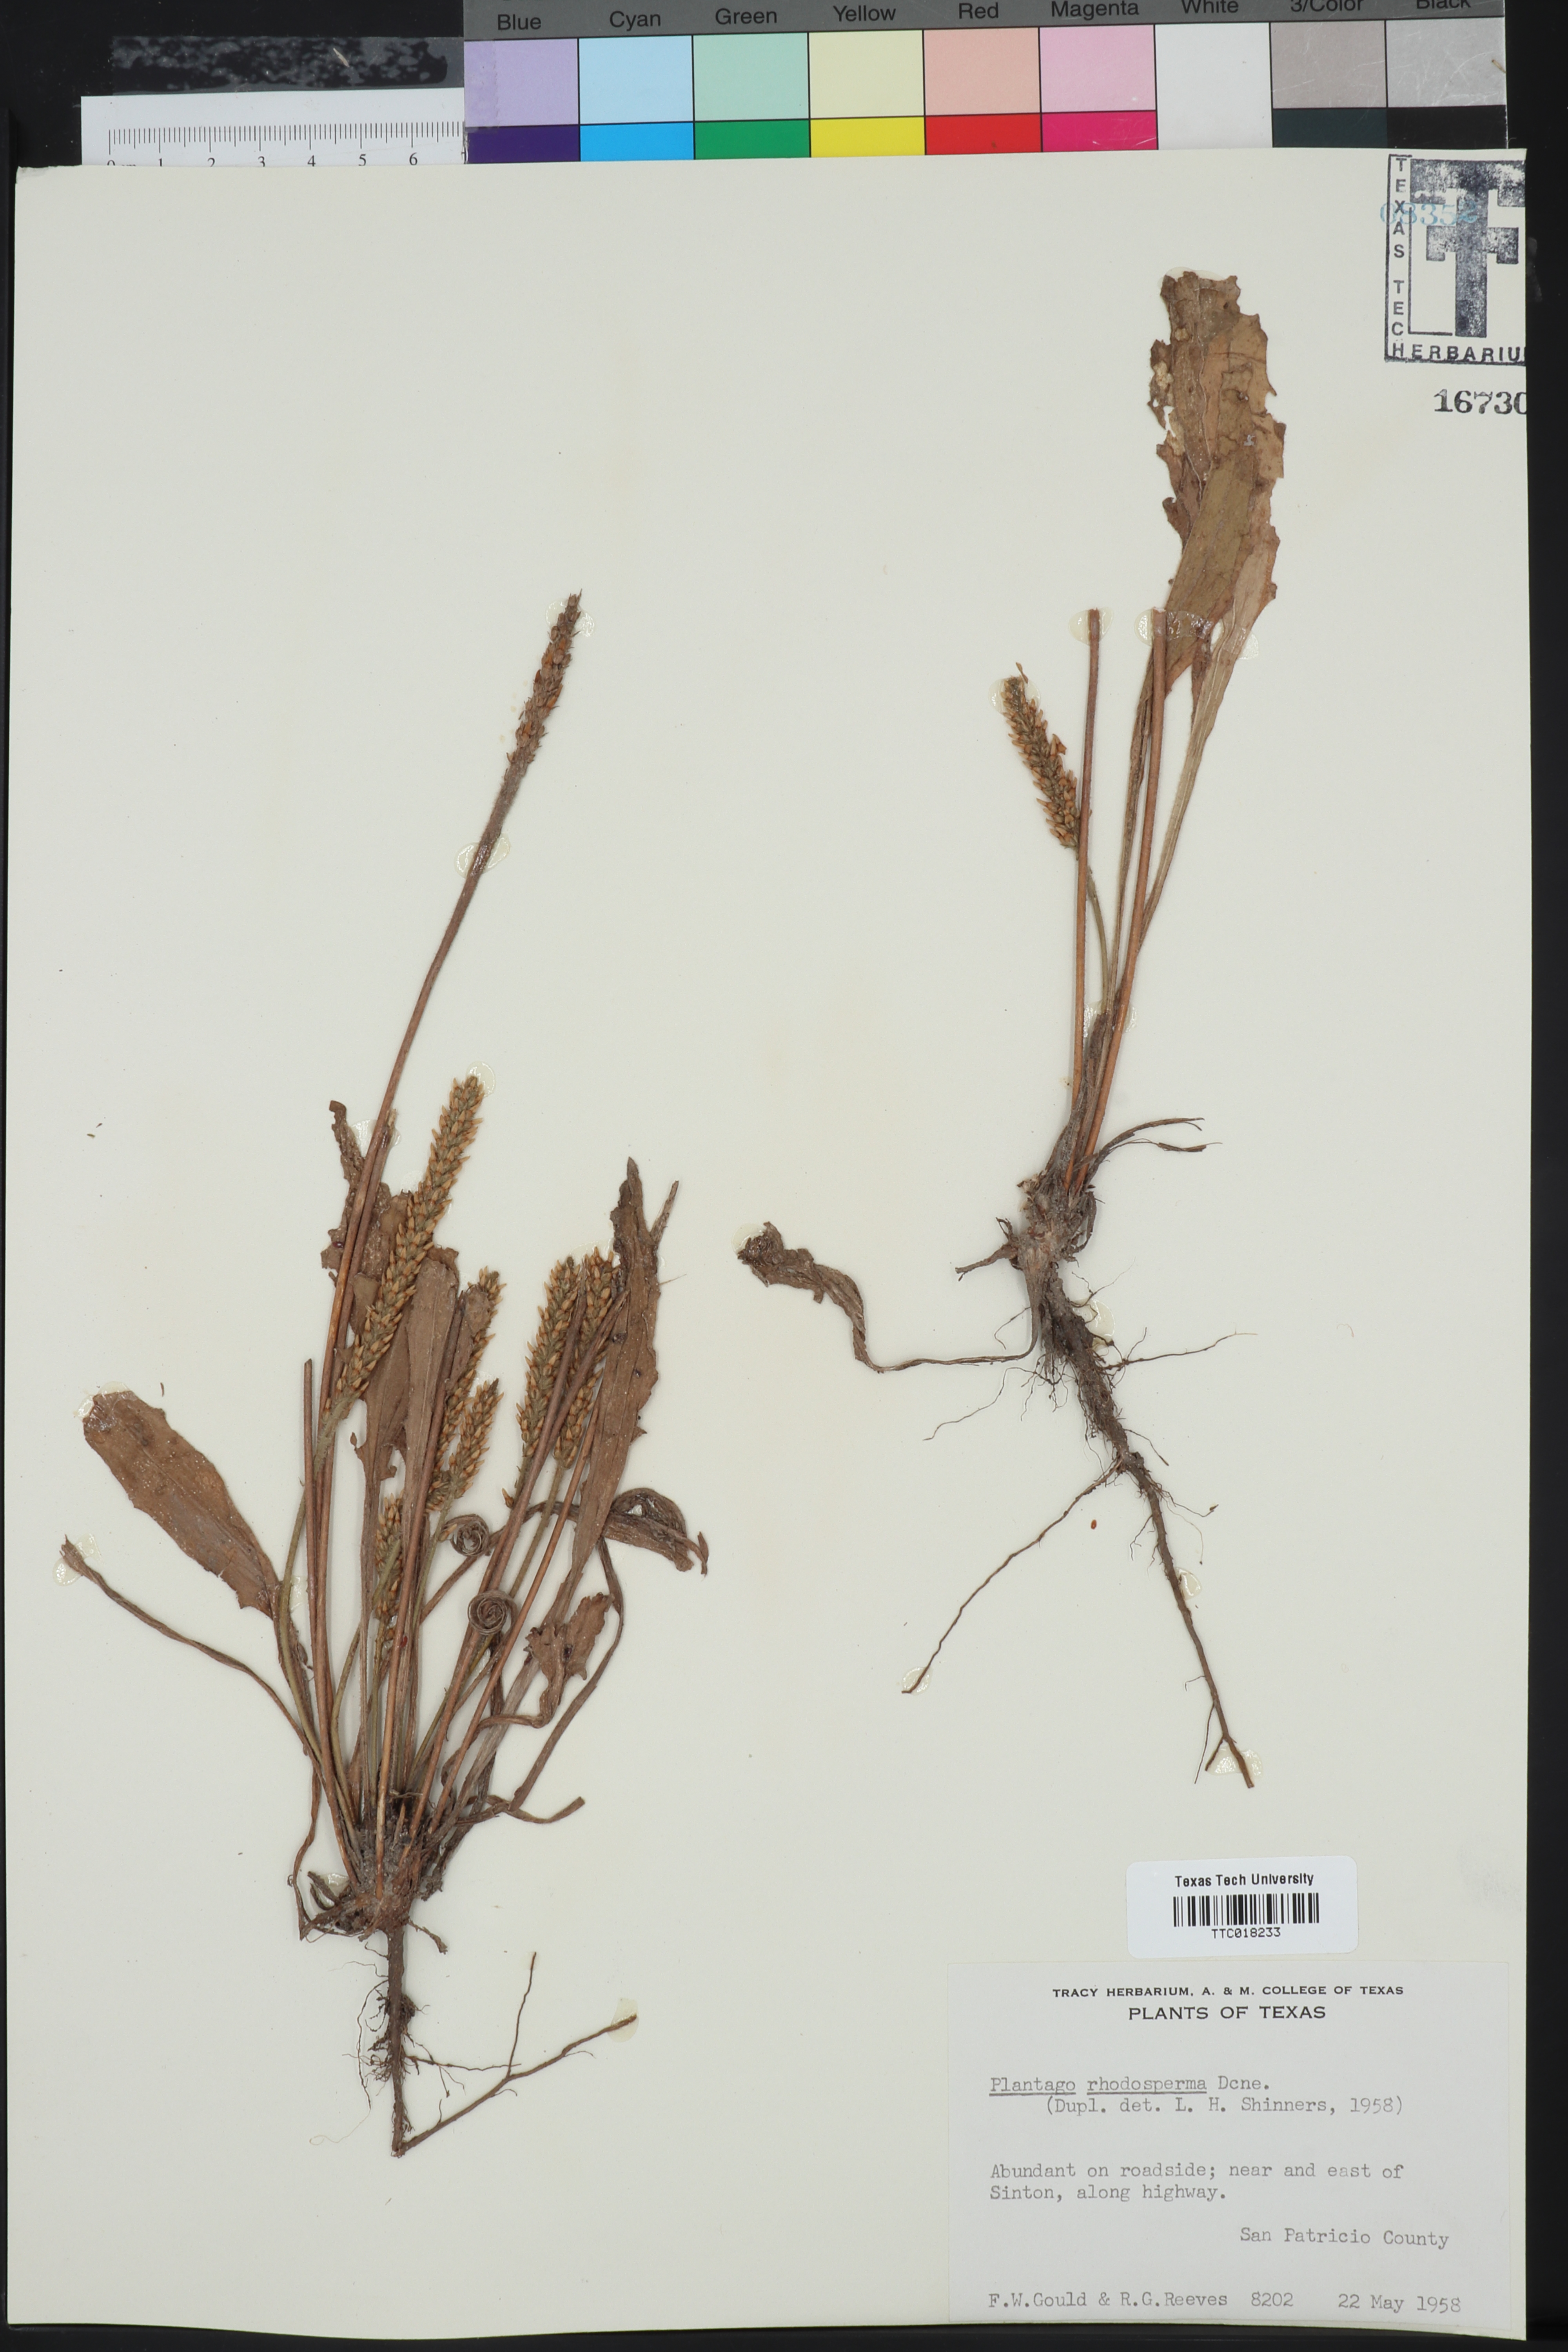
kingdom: Plantae
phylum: Tracheophyta
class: Magnoliopsida
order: Lamiales
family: Plantaginaceae
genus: Plantago
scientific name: Plantago rhodosperma
